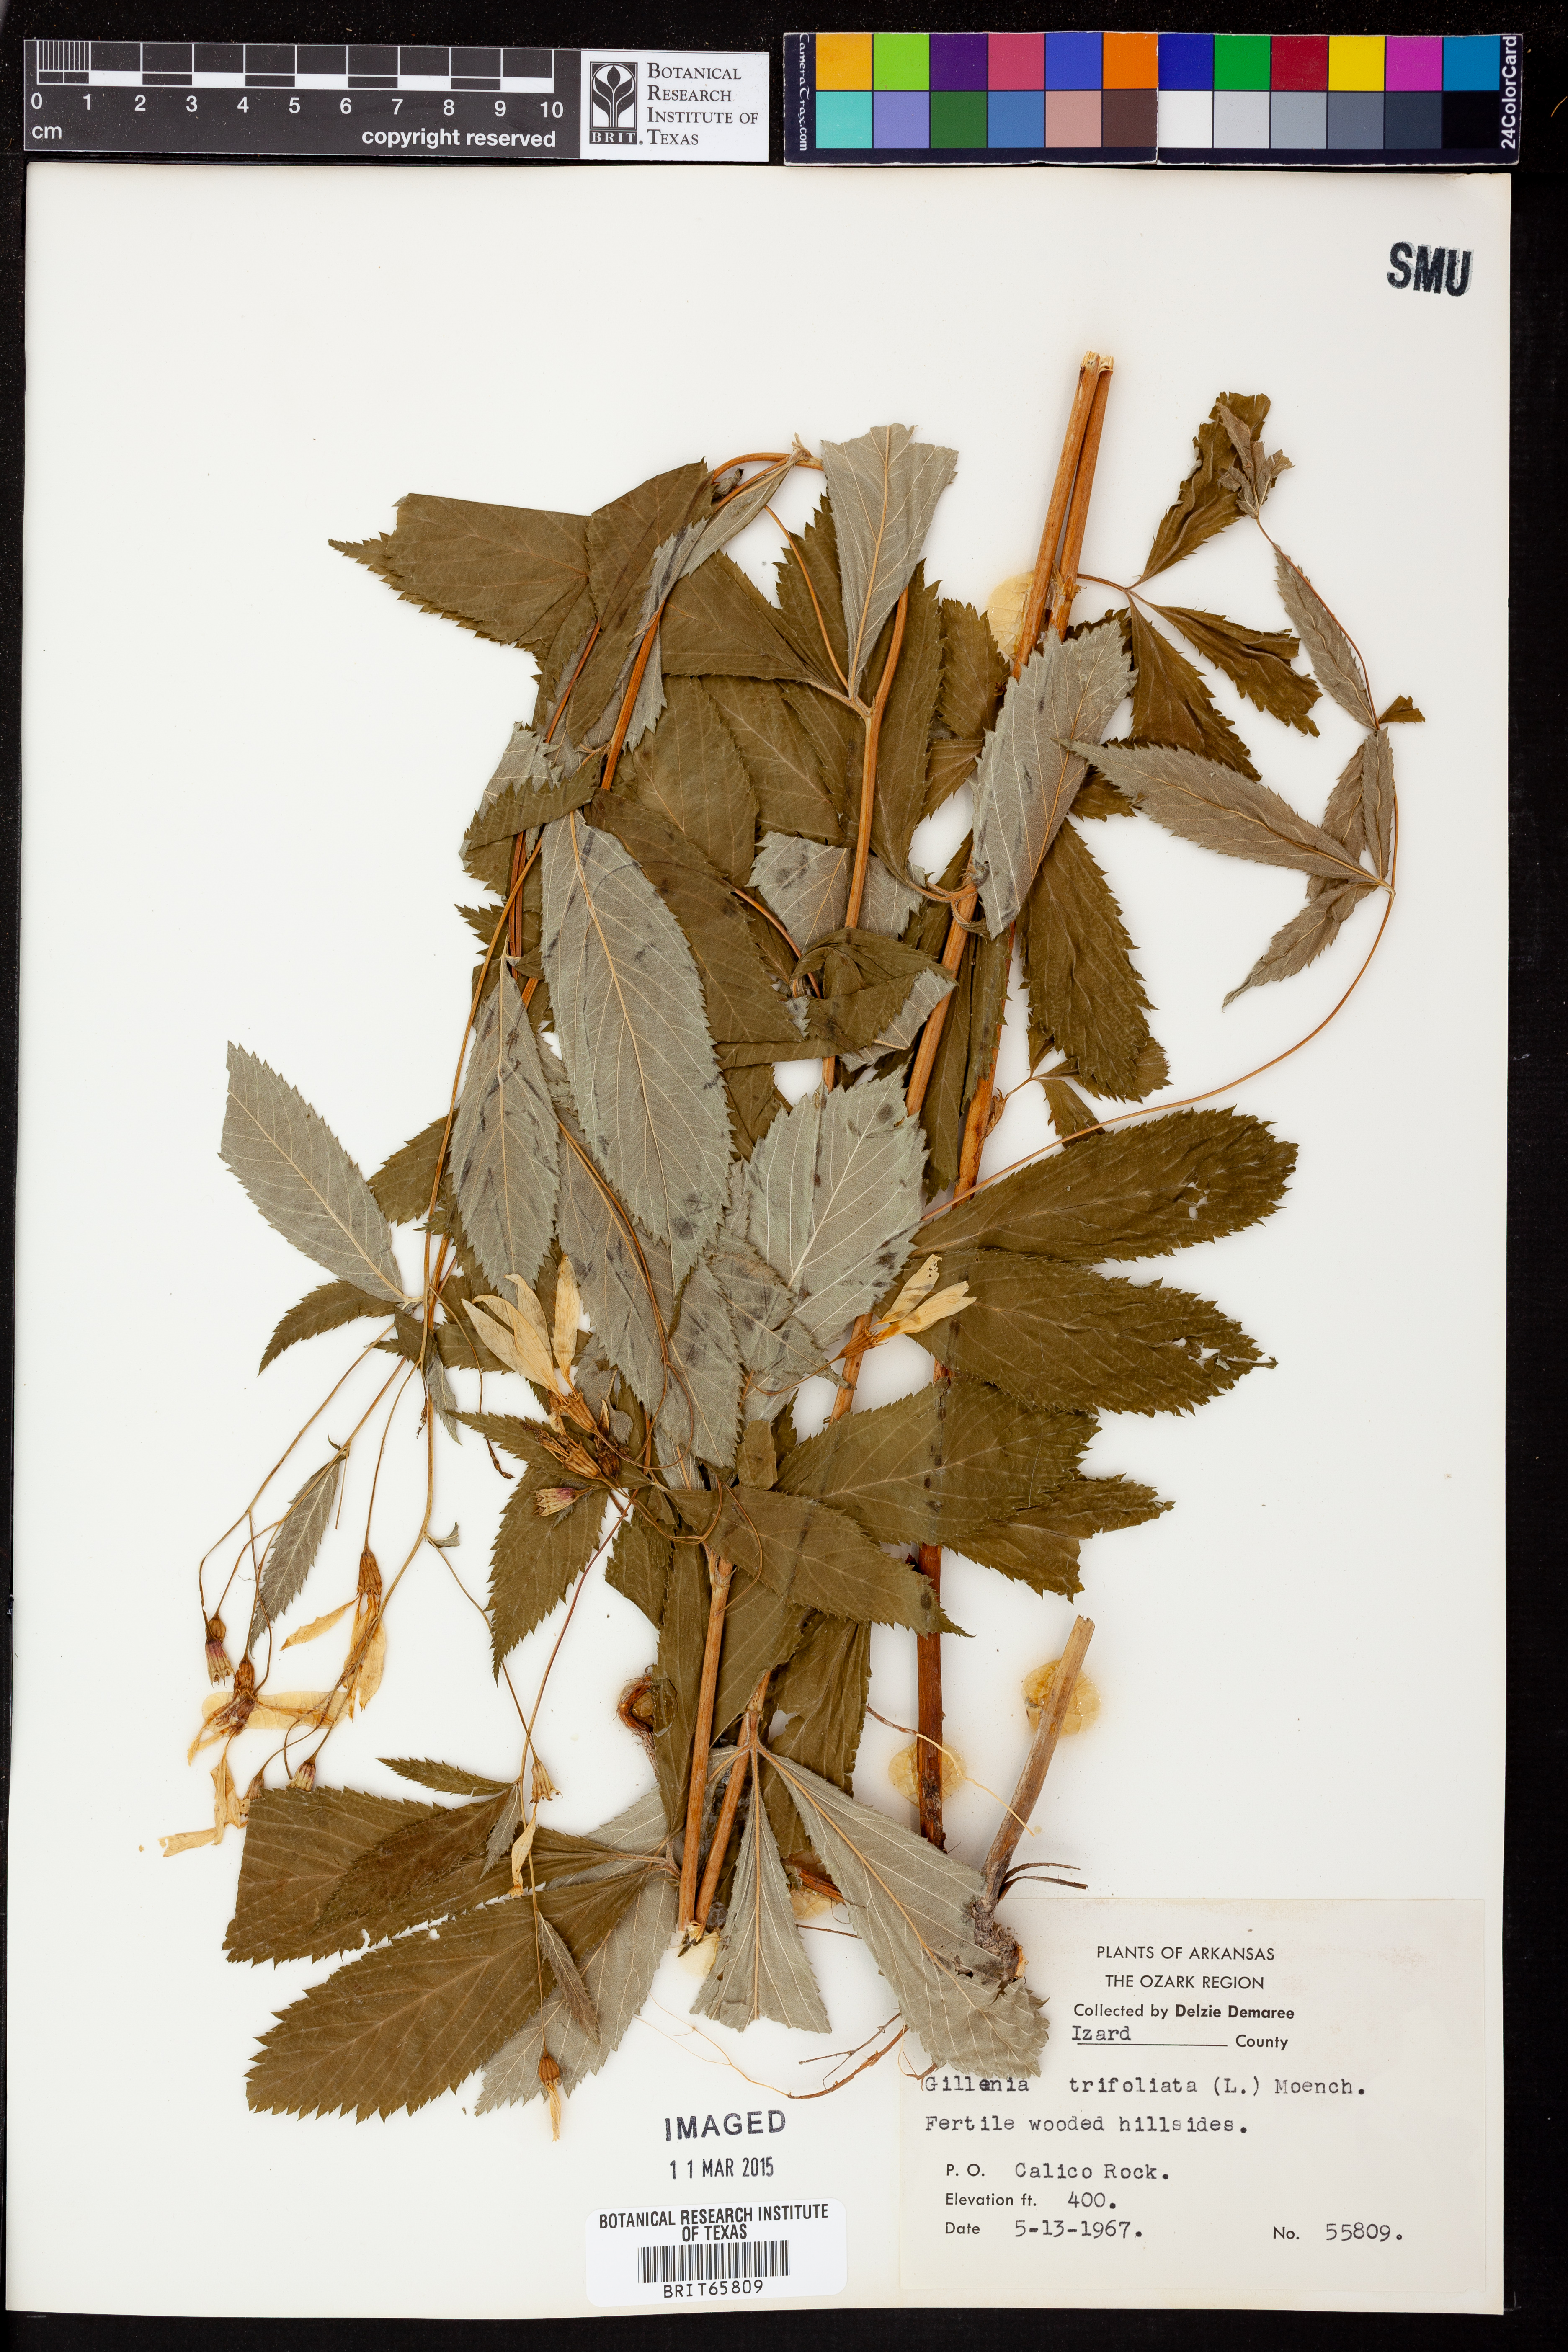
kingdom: Plantae
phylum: Tracheophyta
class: Magnoliopsida
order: Rosales
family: Rosaceae
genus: Gillenia
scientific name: Gillenia trifoliata
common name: Bowman's-root
